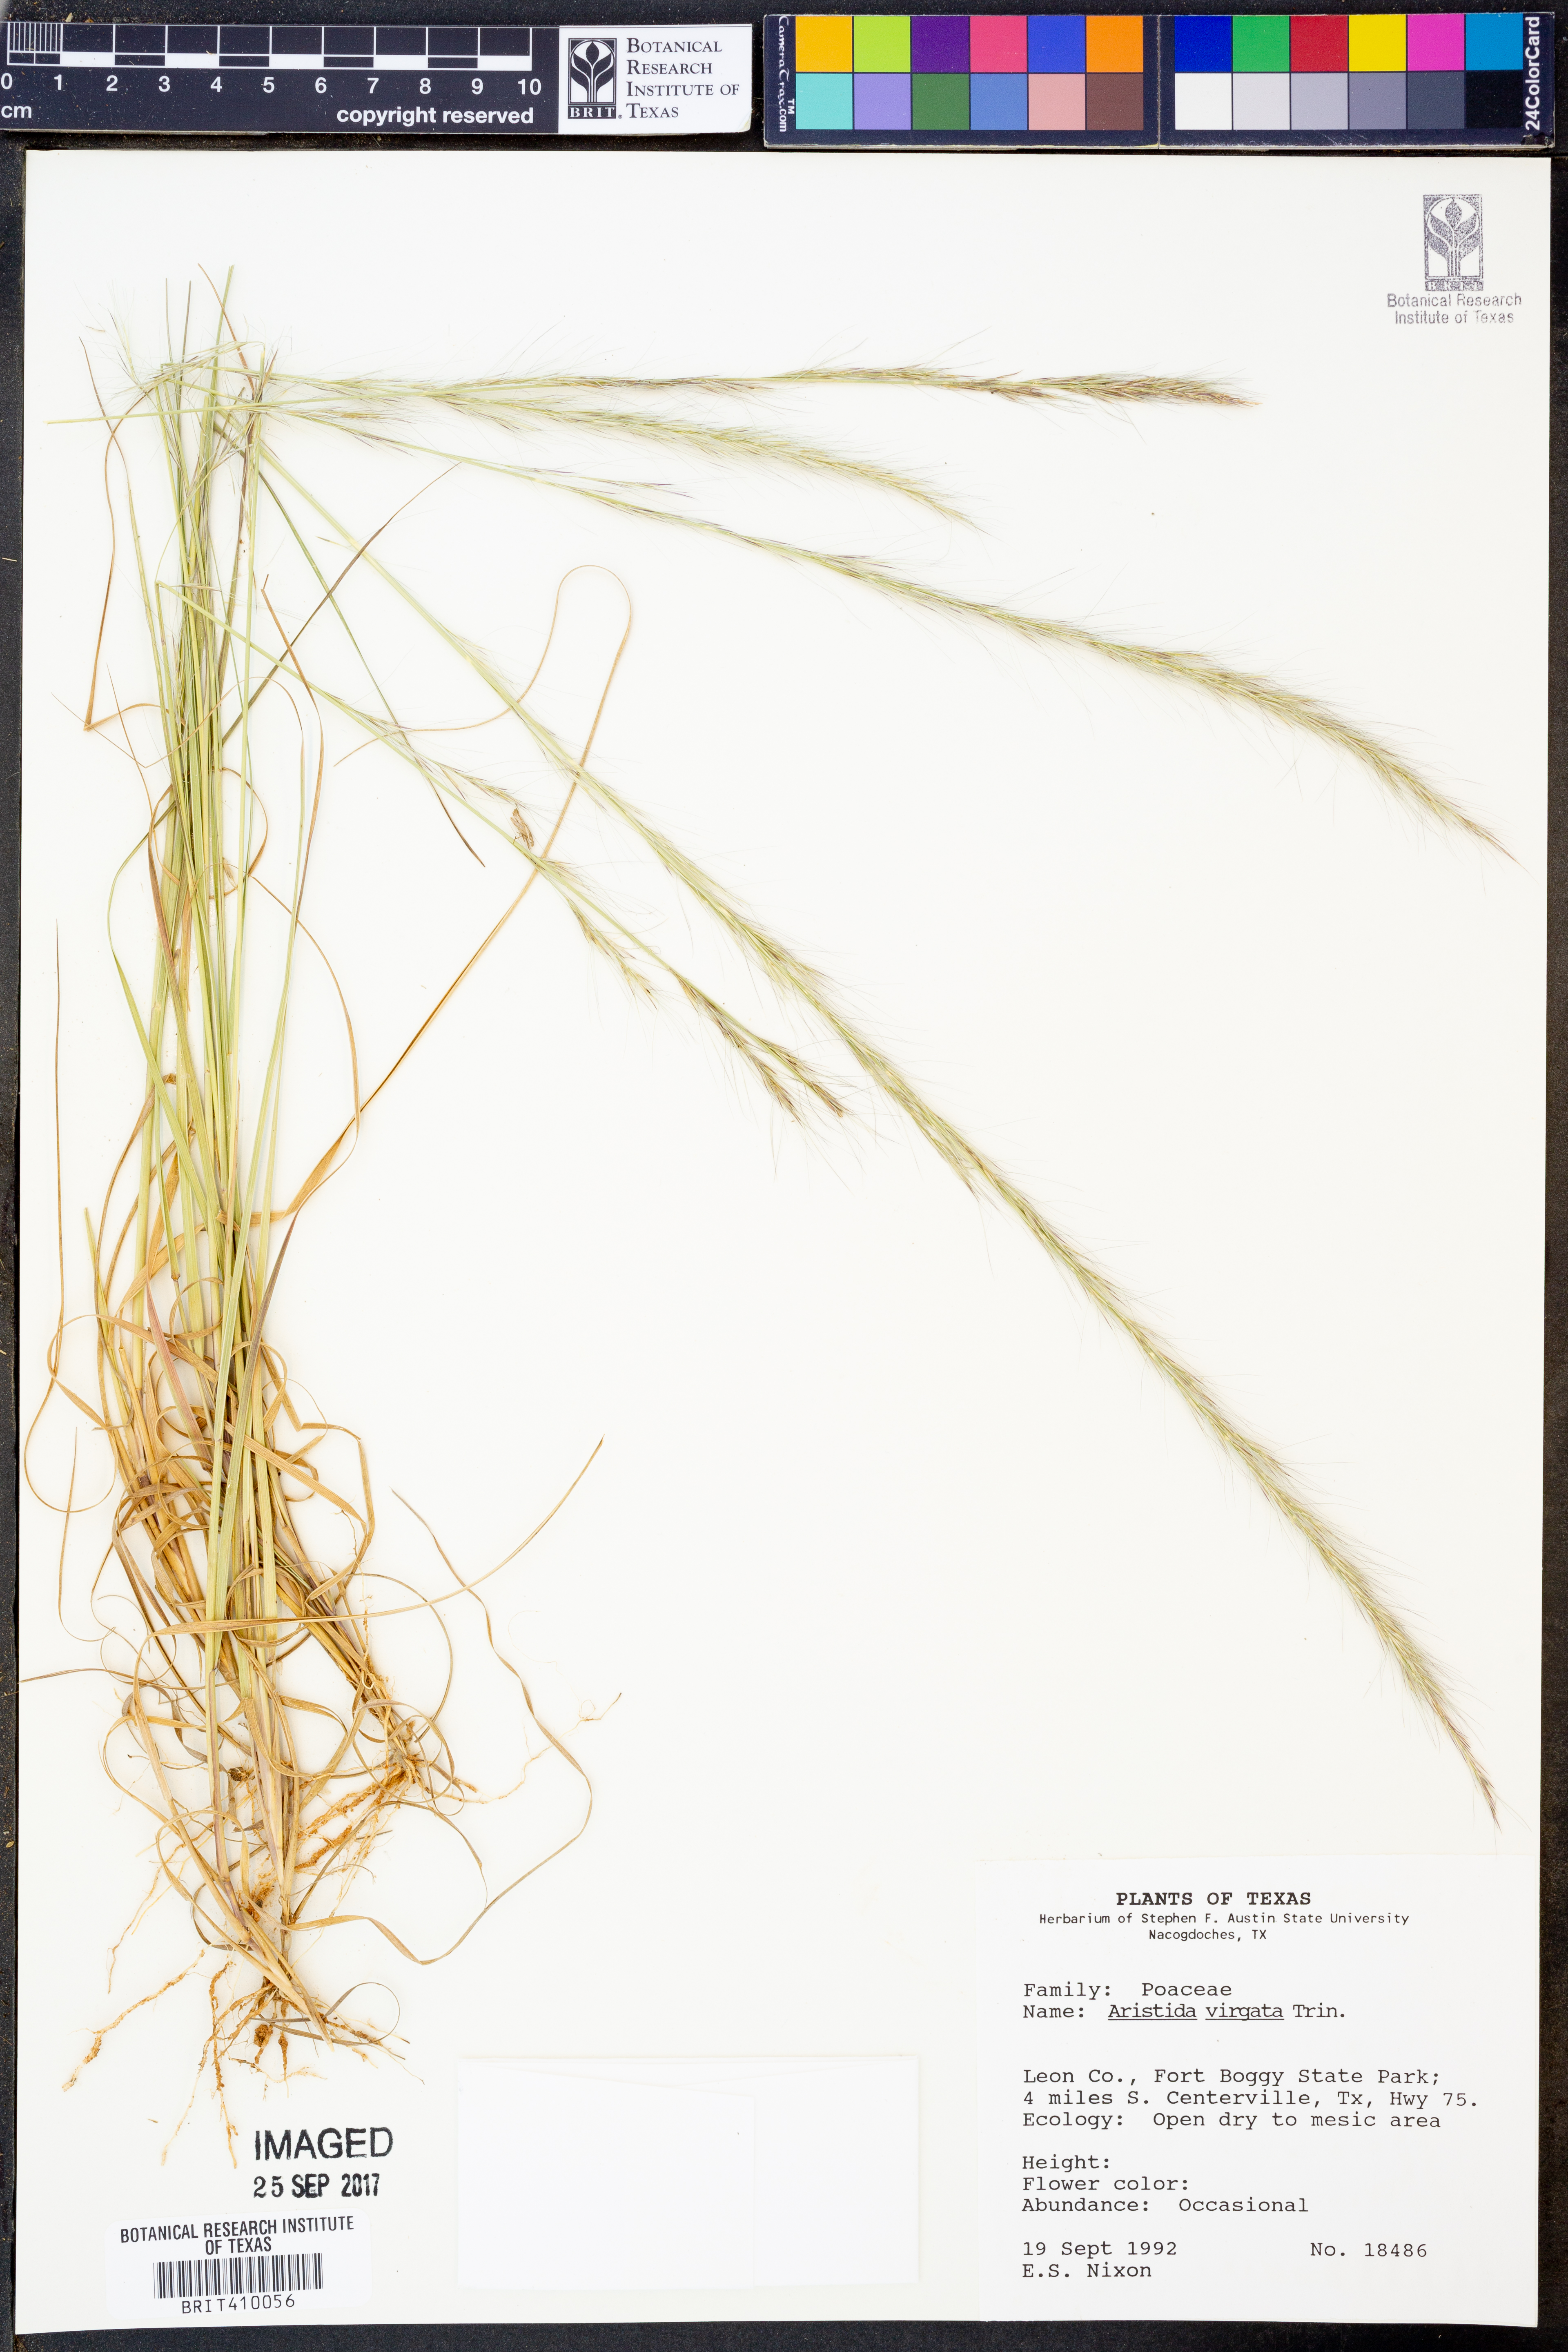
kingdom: Plantae
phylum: Tracheophyta
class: Liliopsida
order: Poales
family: Poaceae
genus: Aristida
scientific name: Aristida virgata
